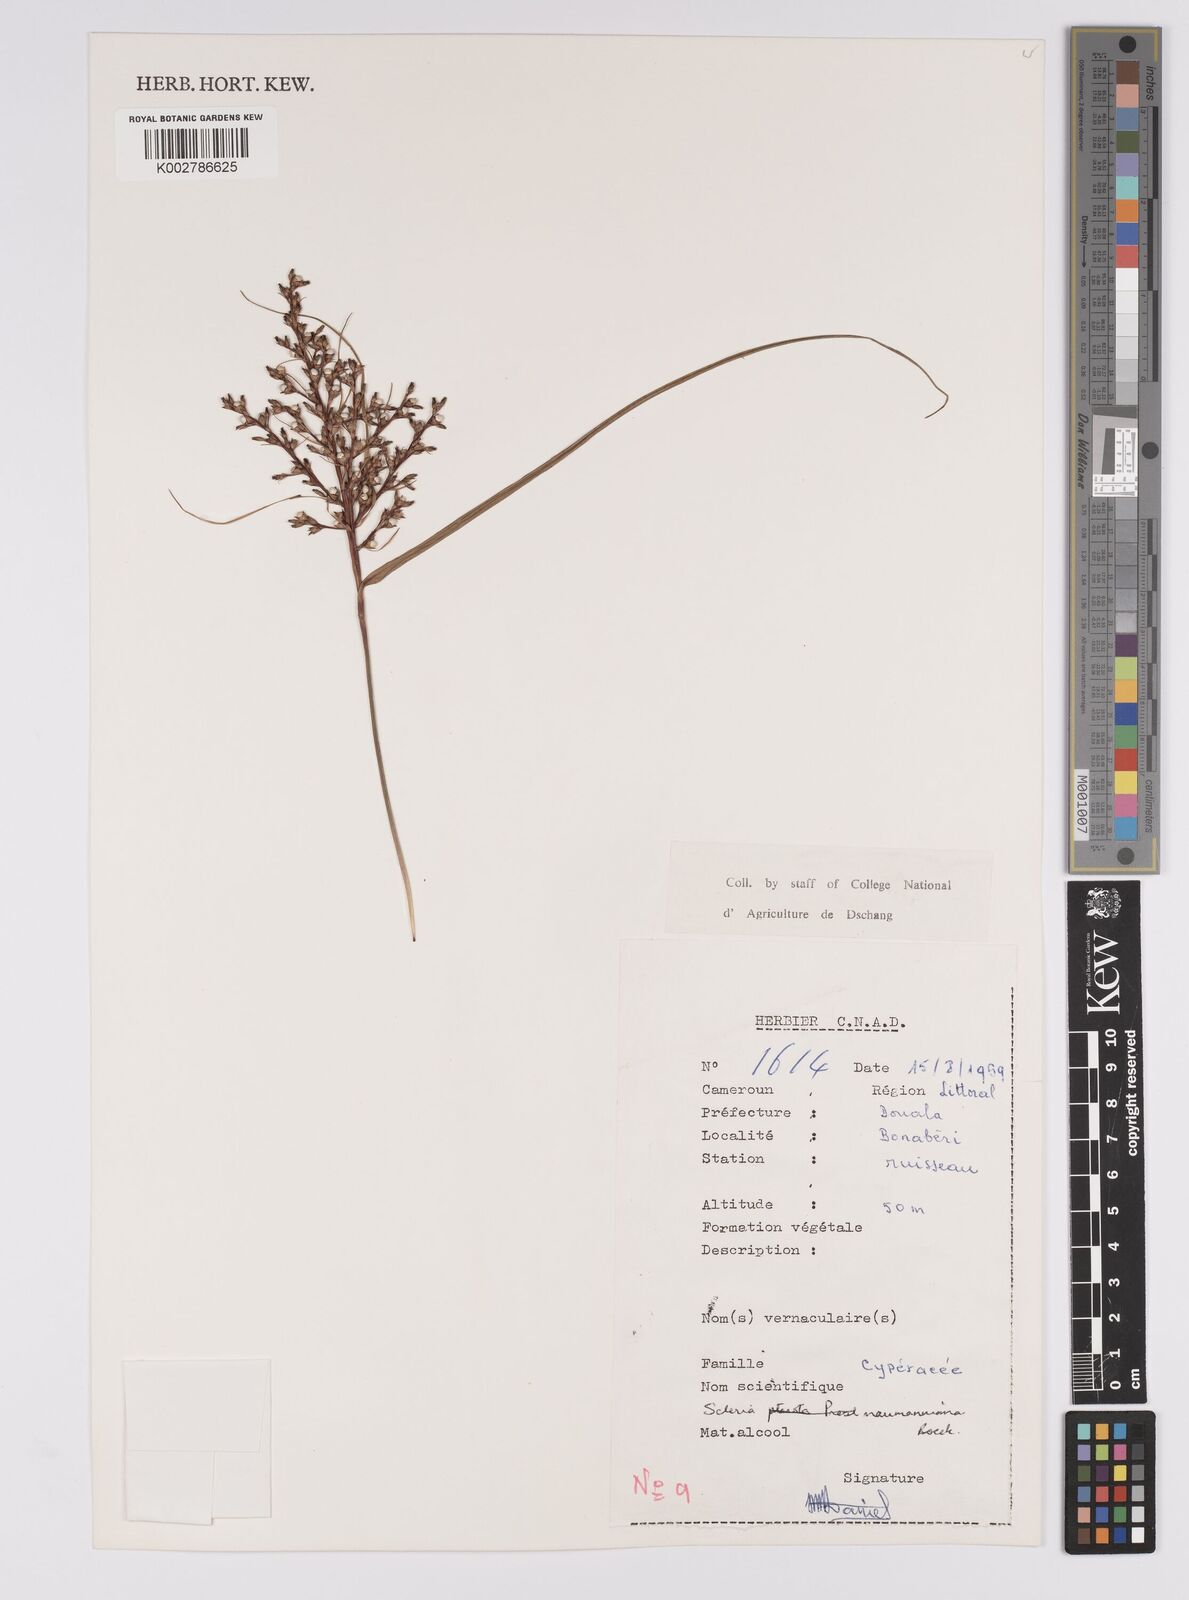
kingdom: Plantae
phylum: Tracheophyta
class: Liliopsida
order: Poales
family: Cyperaceae
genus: Scleria
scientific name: Scleria naumanniana
